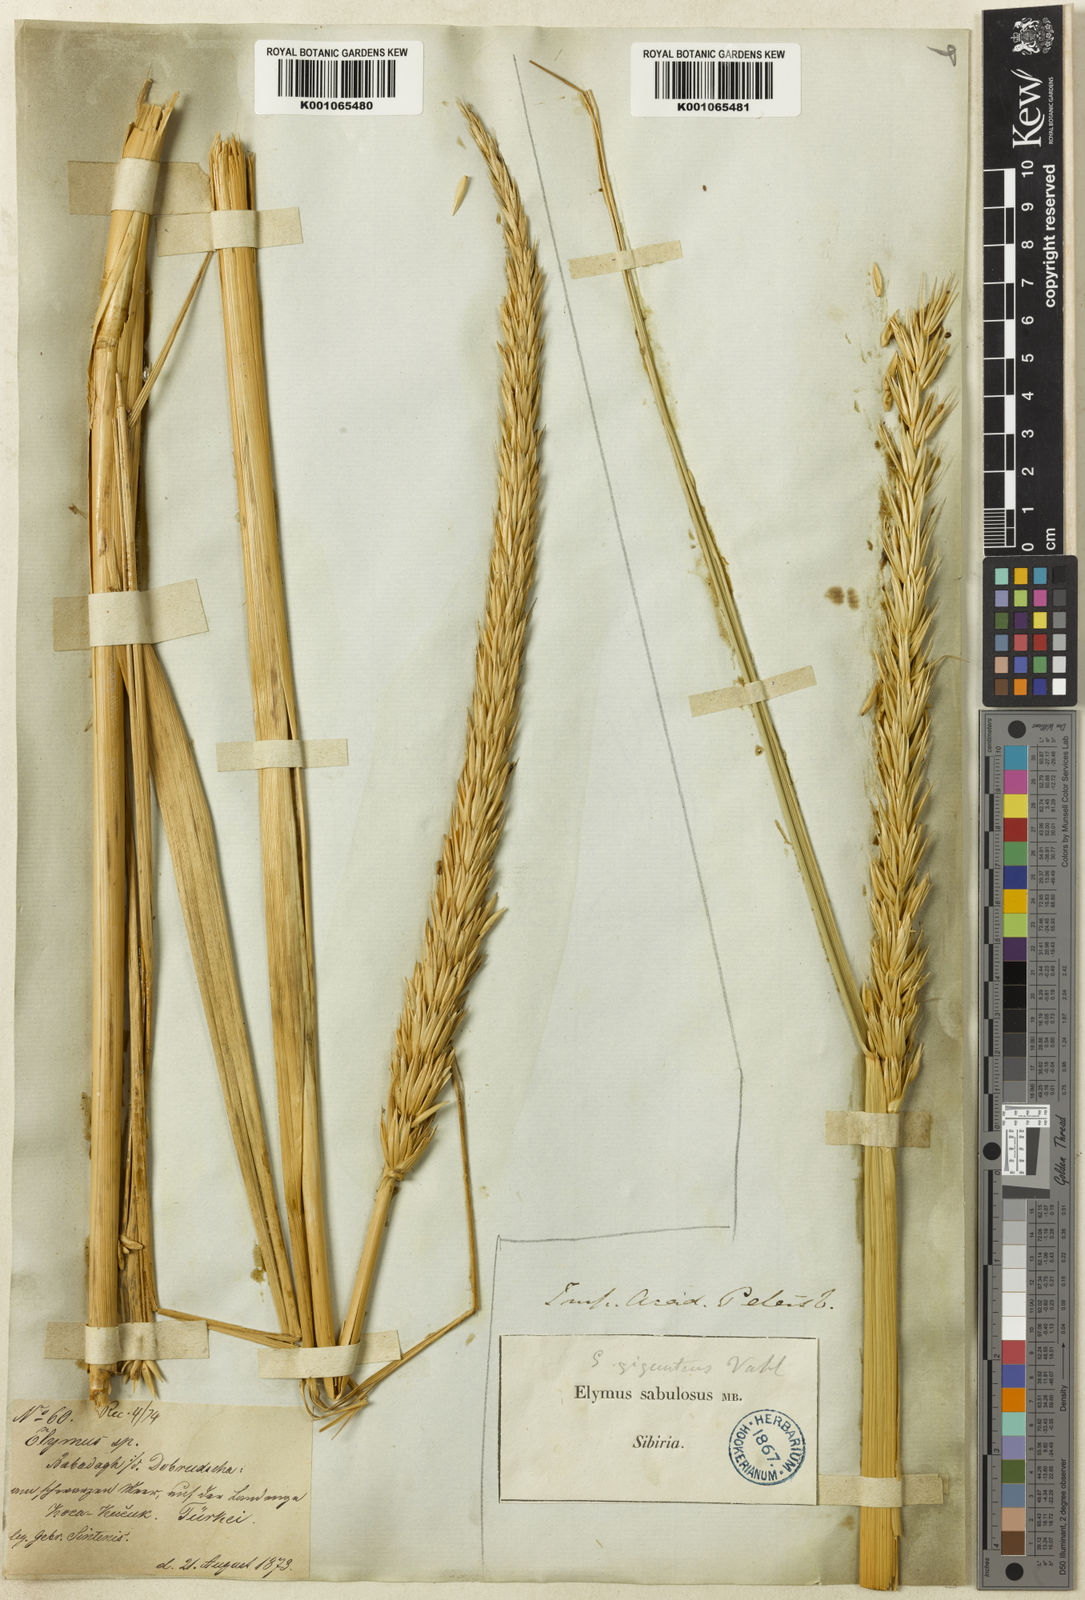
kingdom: Plantae
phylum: Tracheophyta
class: Liliopsida
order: Poales
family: Poaceae
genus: Leymus
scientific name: Leymus racemosus
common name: Mammoth wildrye
